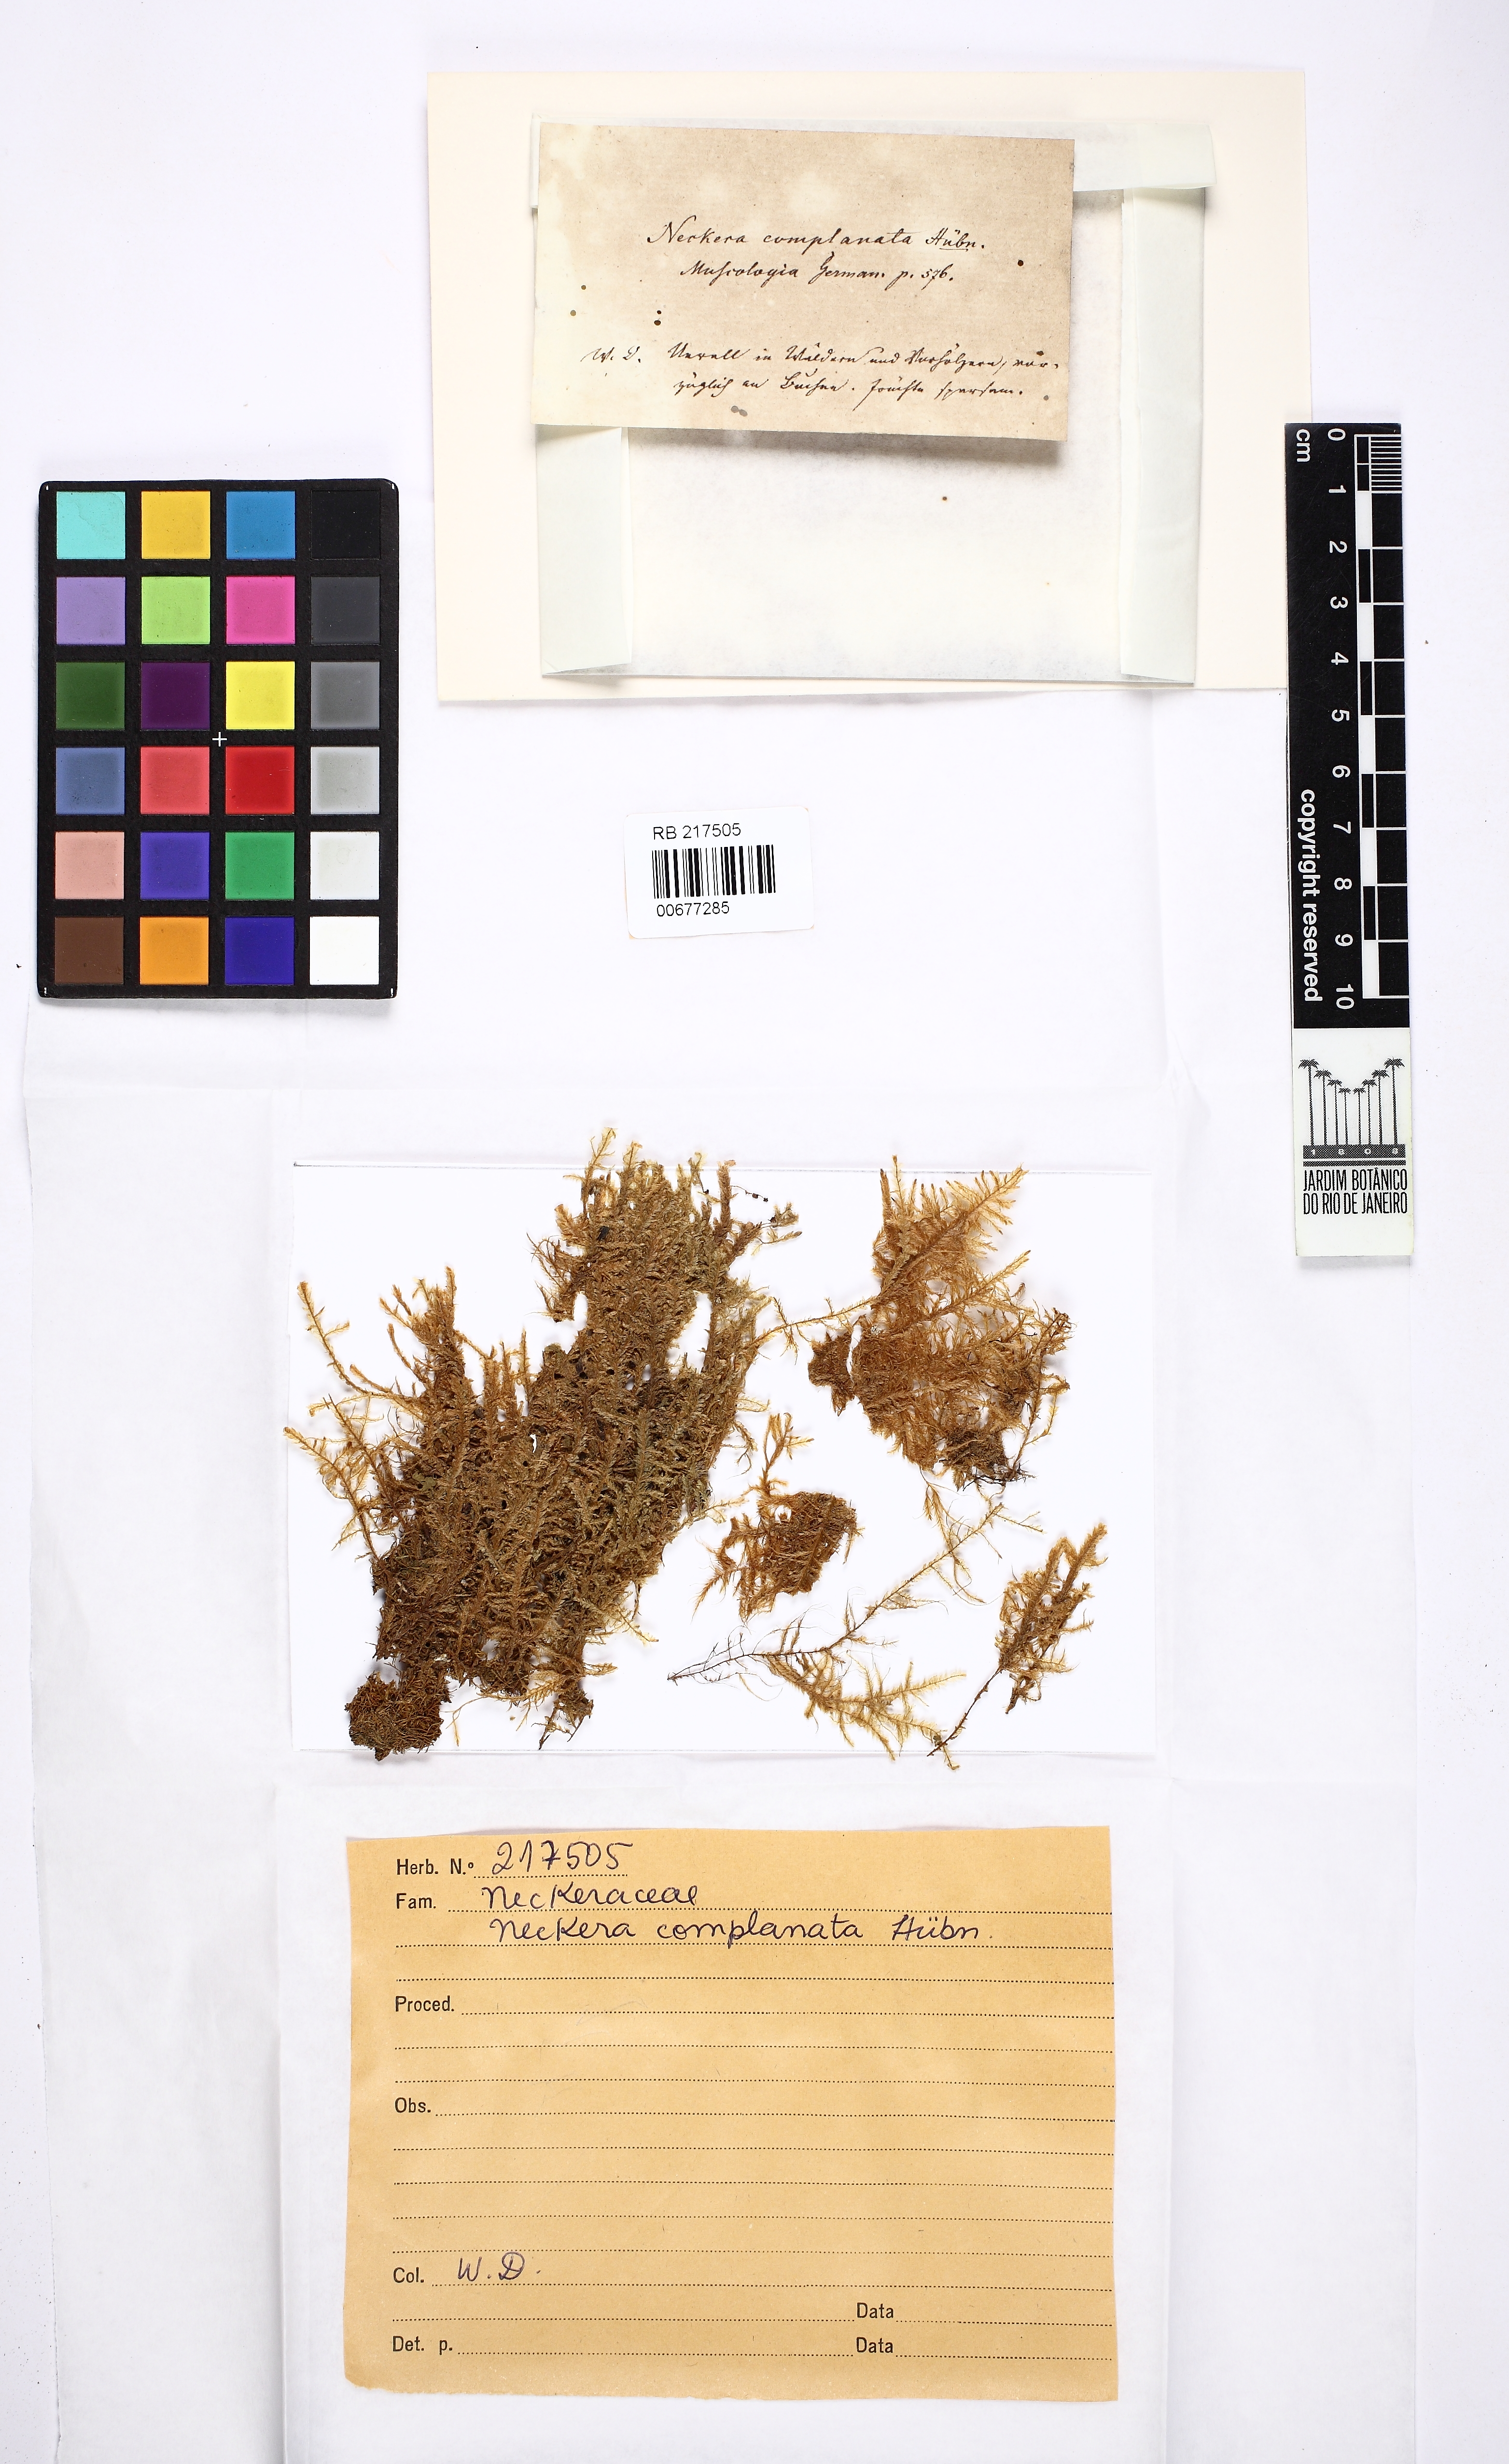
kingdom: Plantae
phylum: Bryophyta
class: Bryopsida
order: Hypnales
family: Neckeraceae
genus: Alleniella
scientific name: Alleniella complanata
